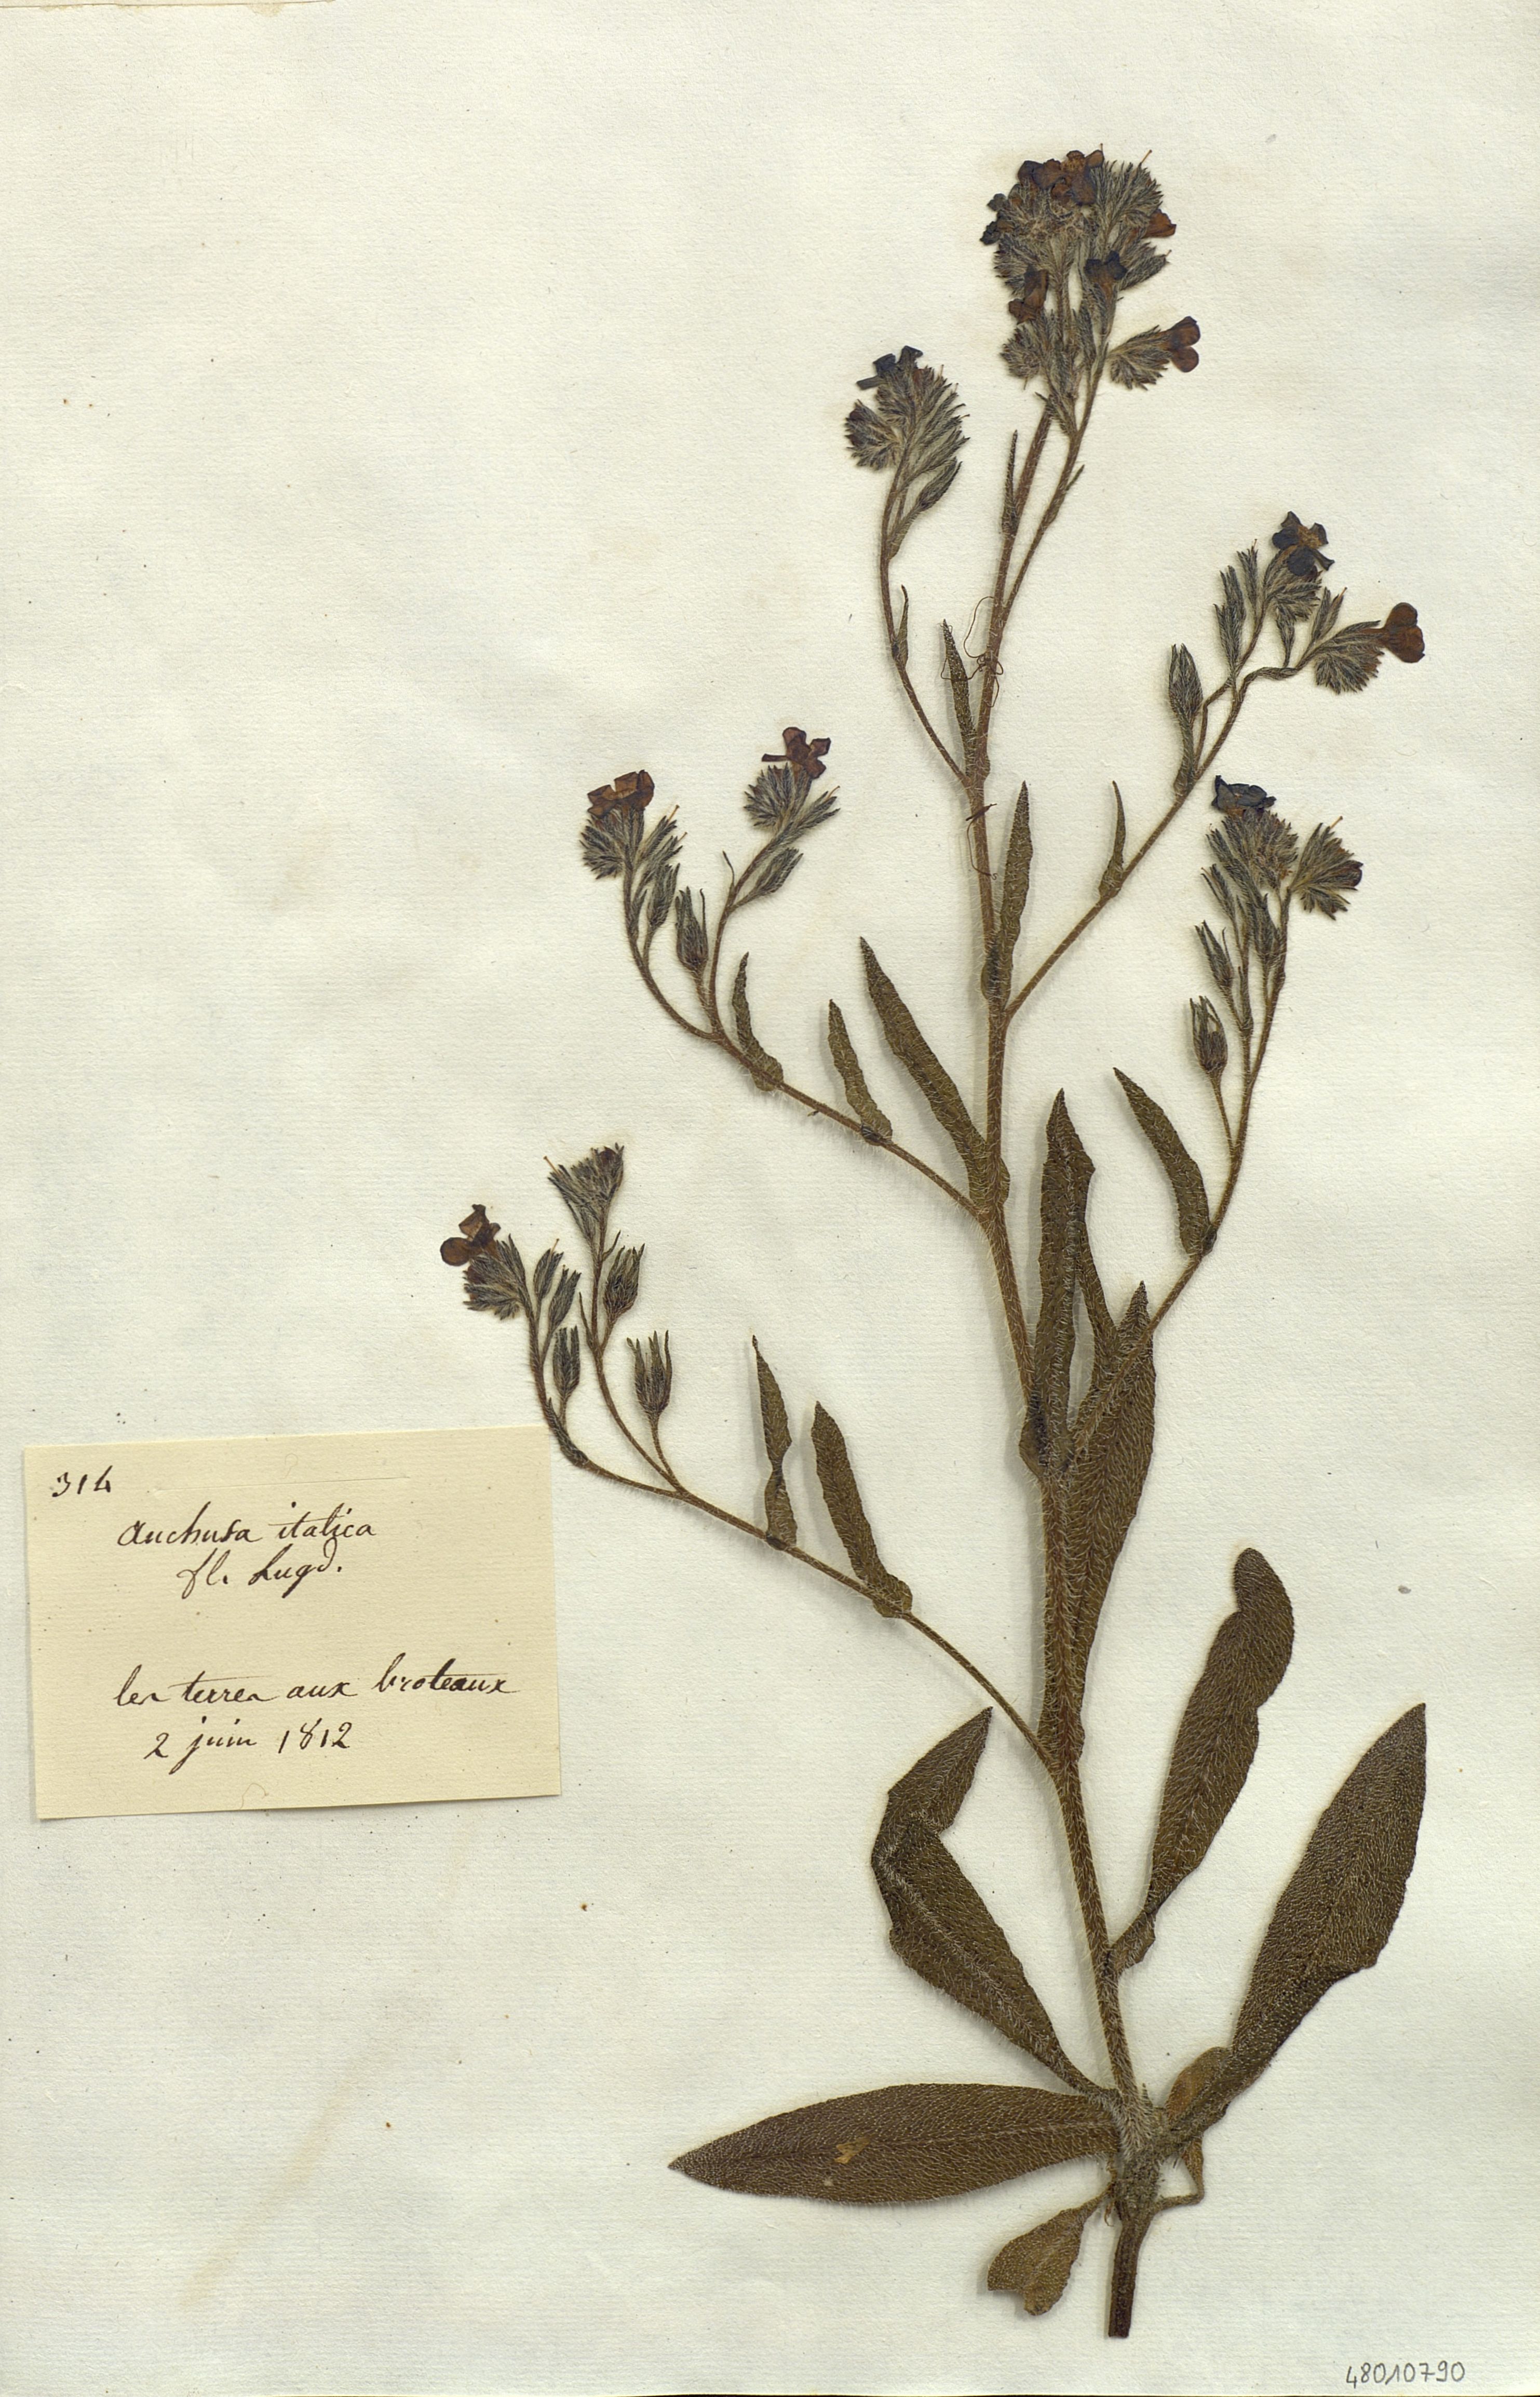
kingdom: Plantae
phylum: Tracheophyta
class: Magnoliopsida
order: Boraginales
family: Boraginaceae
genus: Anchusa
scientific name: Anchusa azurea
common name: Garden anchusa
